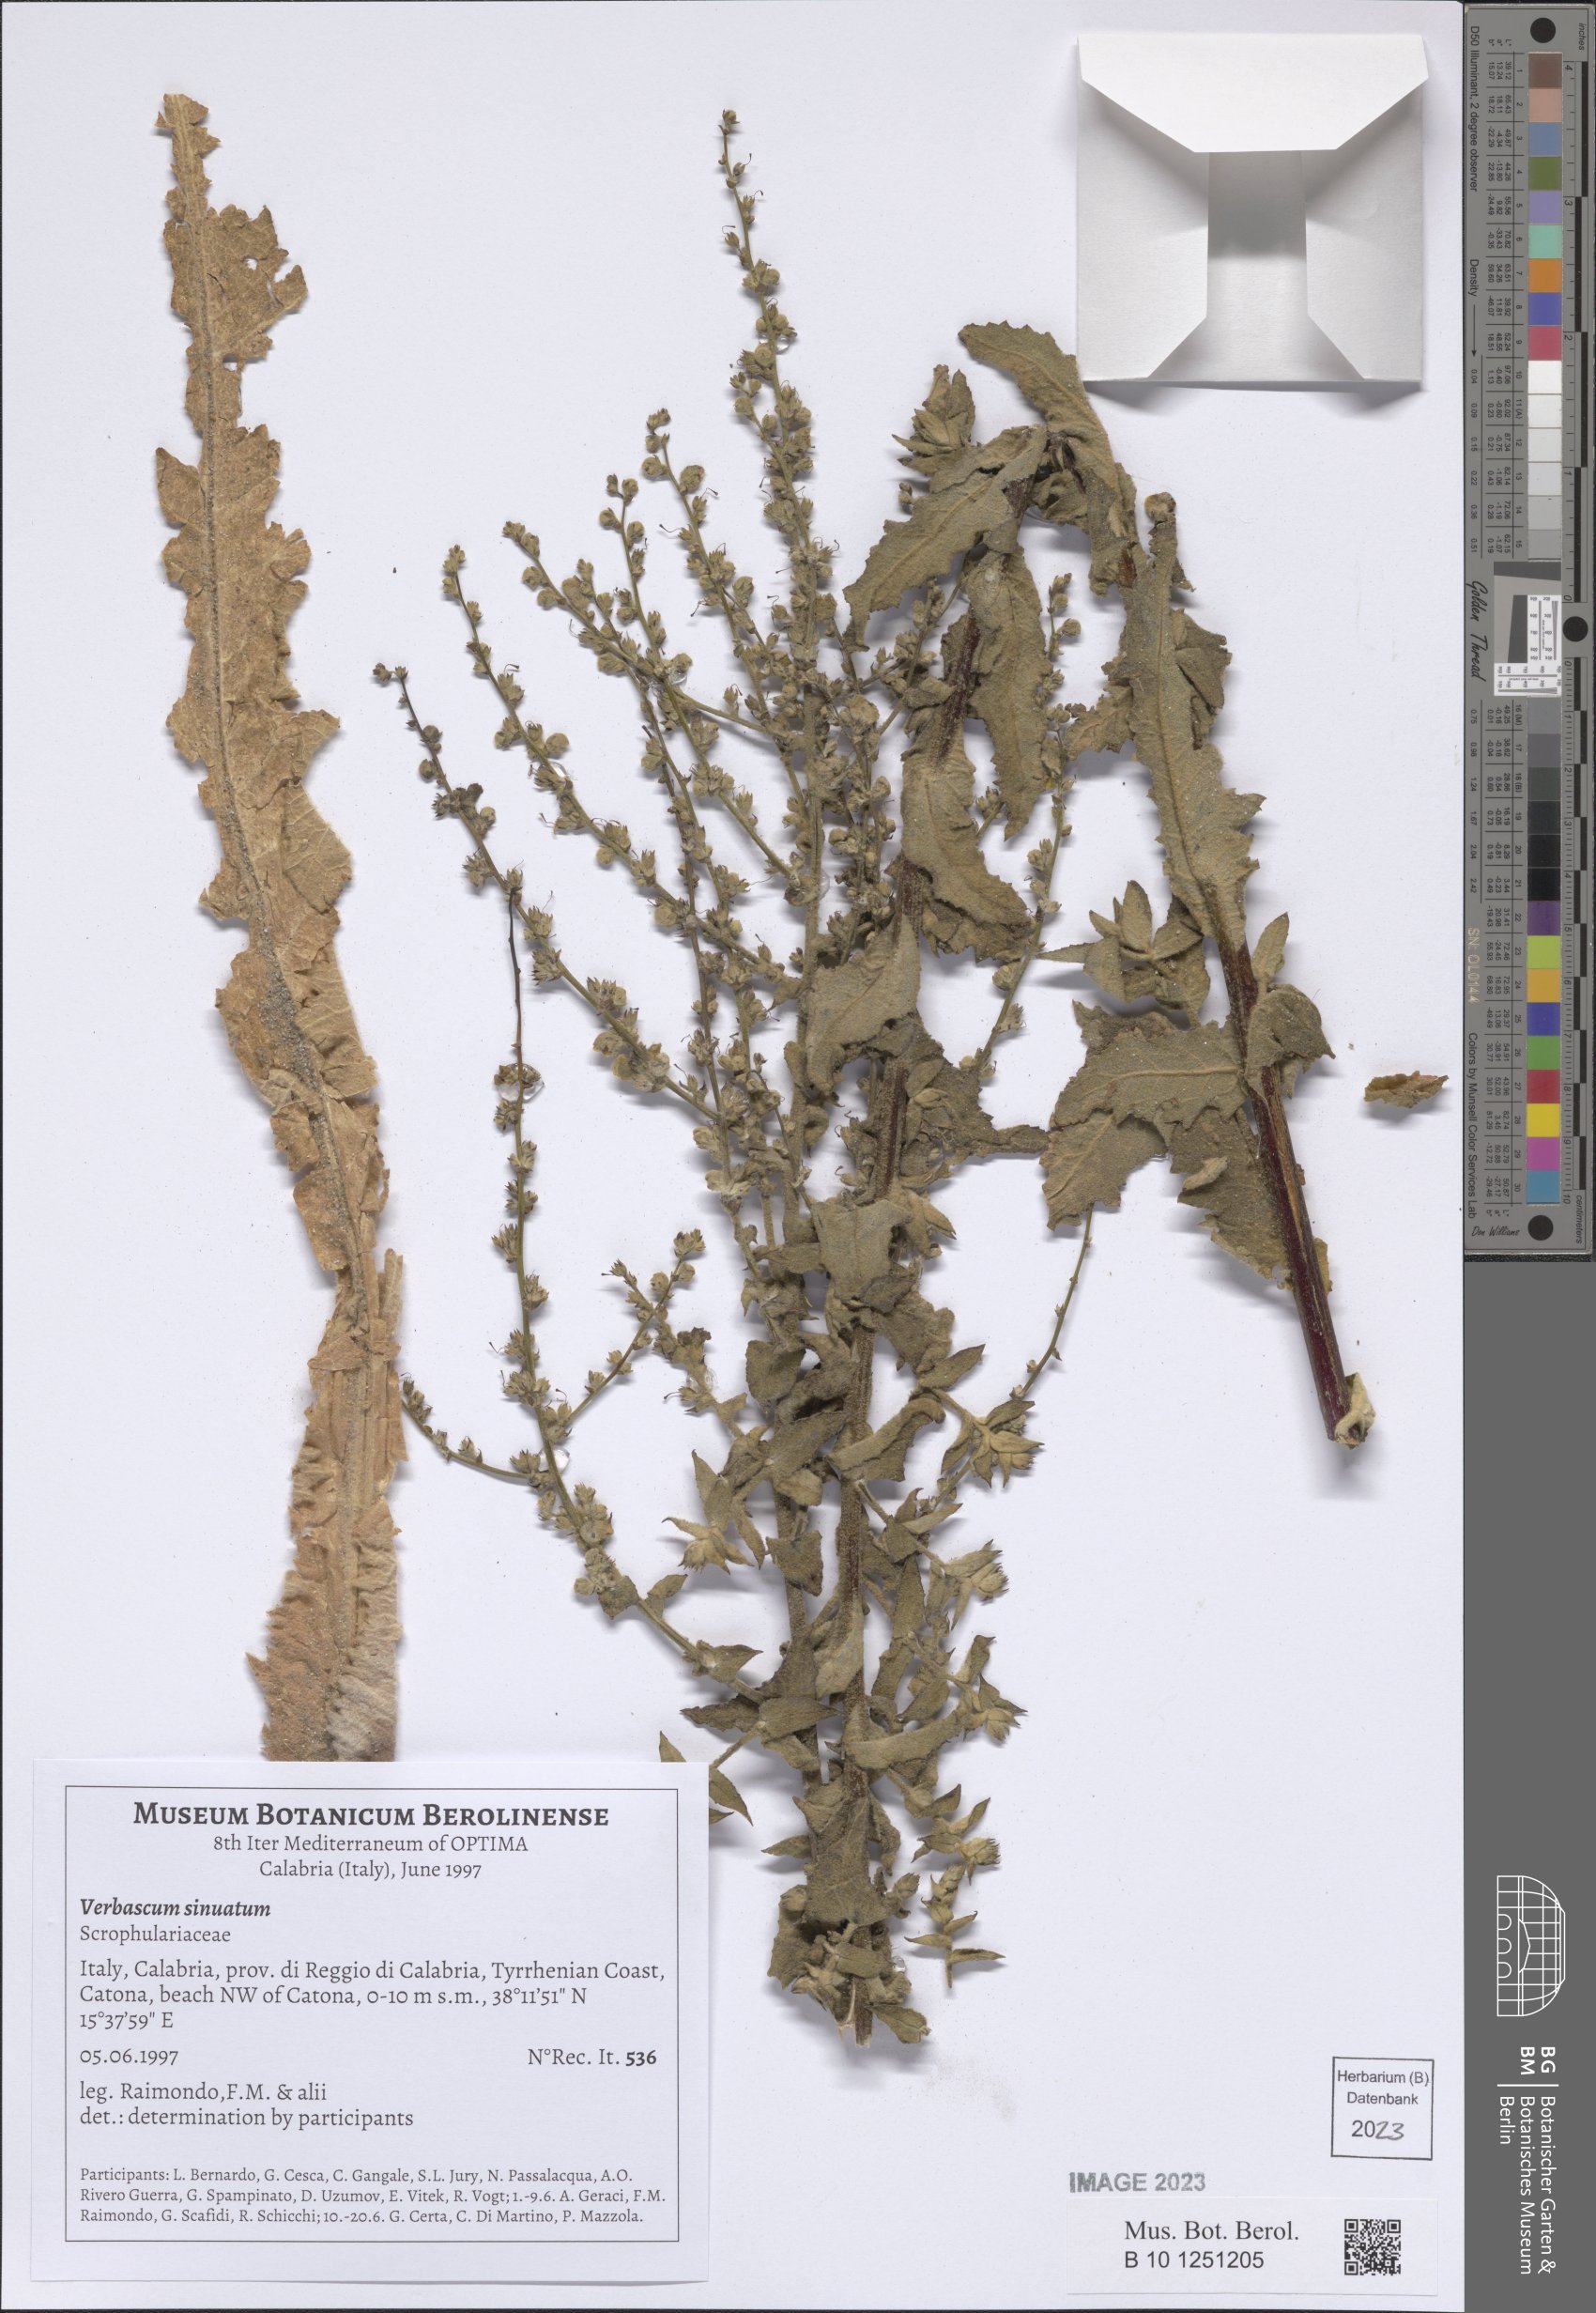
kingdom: Plantae
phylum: Tracheophyta
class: Magnoliopsida
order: Lamiales
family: Scrophulariaceae
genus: Verbascum
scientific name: Verbascum sinuatum
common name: Wavyleaf mullein
